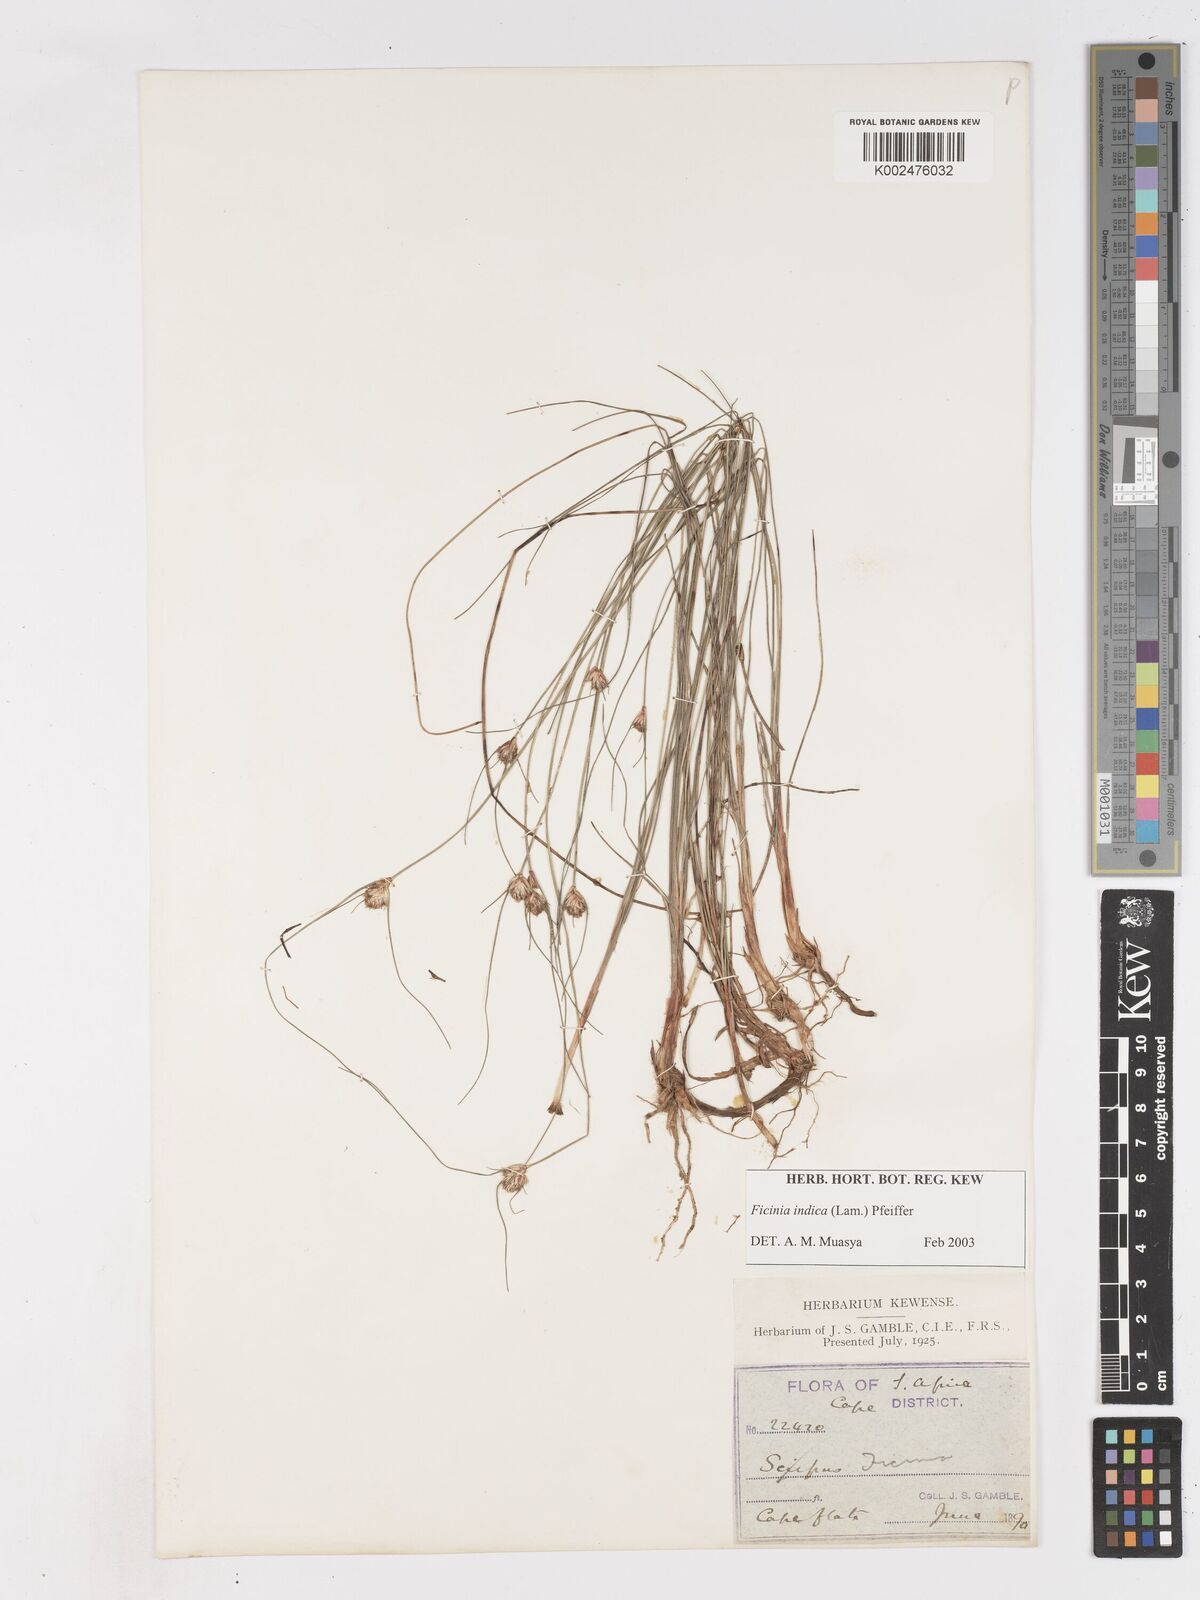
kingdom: Plantae
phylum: Tracheophyta
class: Liliopsida
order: Poales
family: Cyperaceae
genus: Ficinia
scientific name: Ficinia indica
